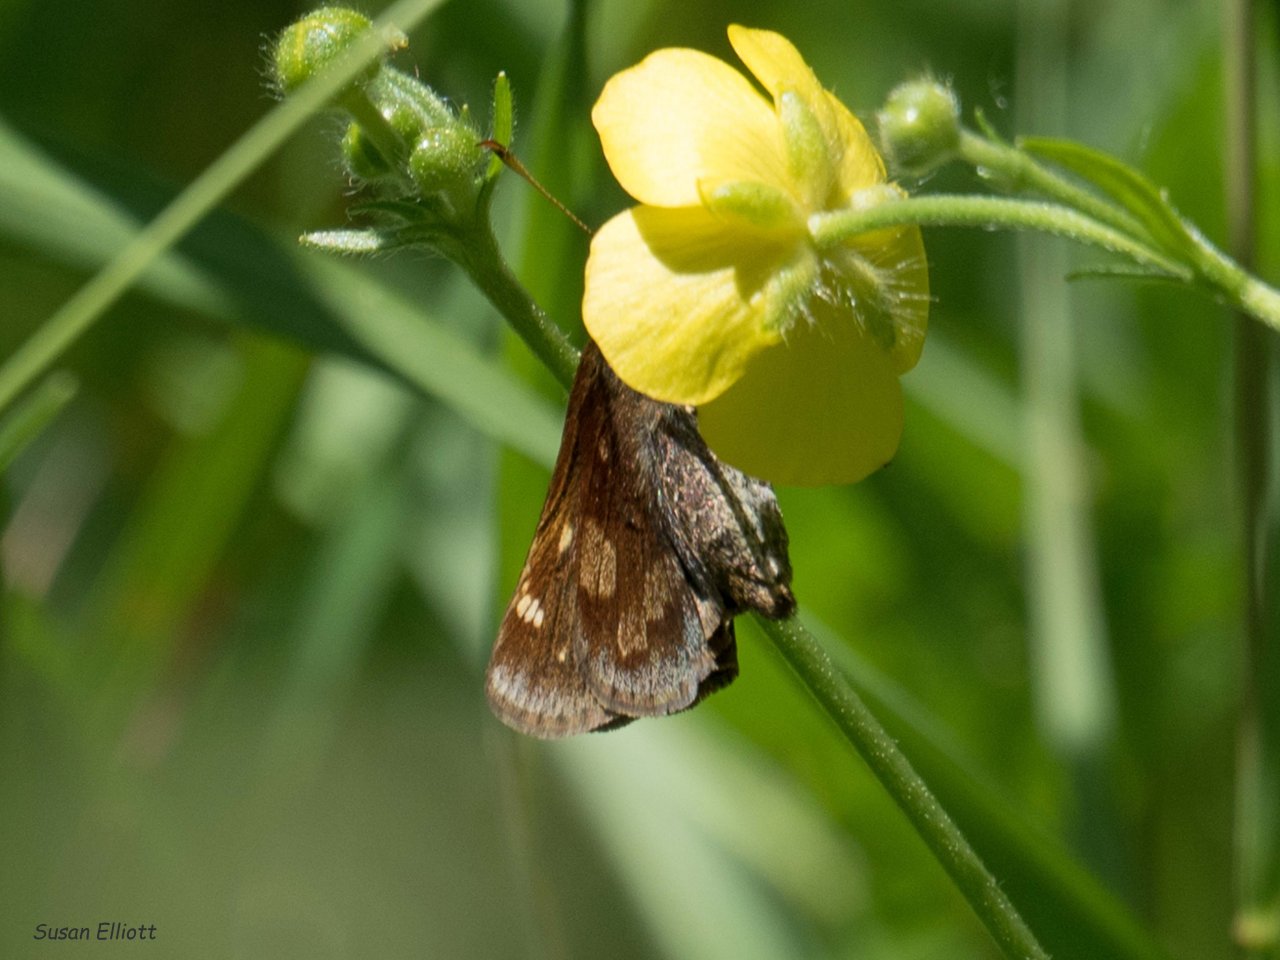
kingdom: Animalia
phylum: Arthropoda
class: Insecta
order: Lepidoptera
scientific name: Lepidoptera
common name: Butterflies
